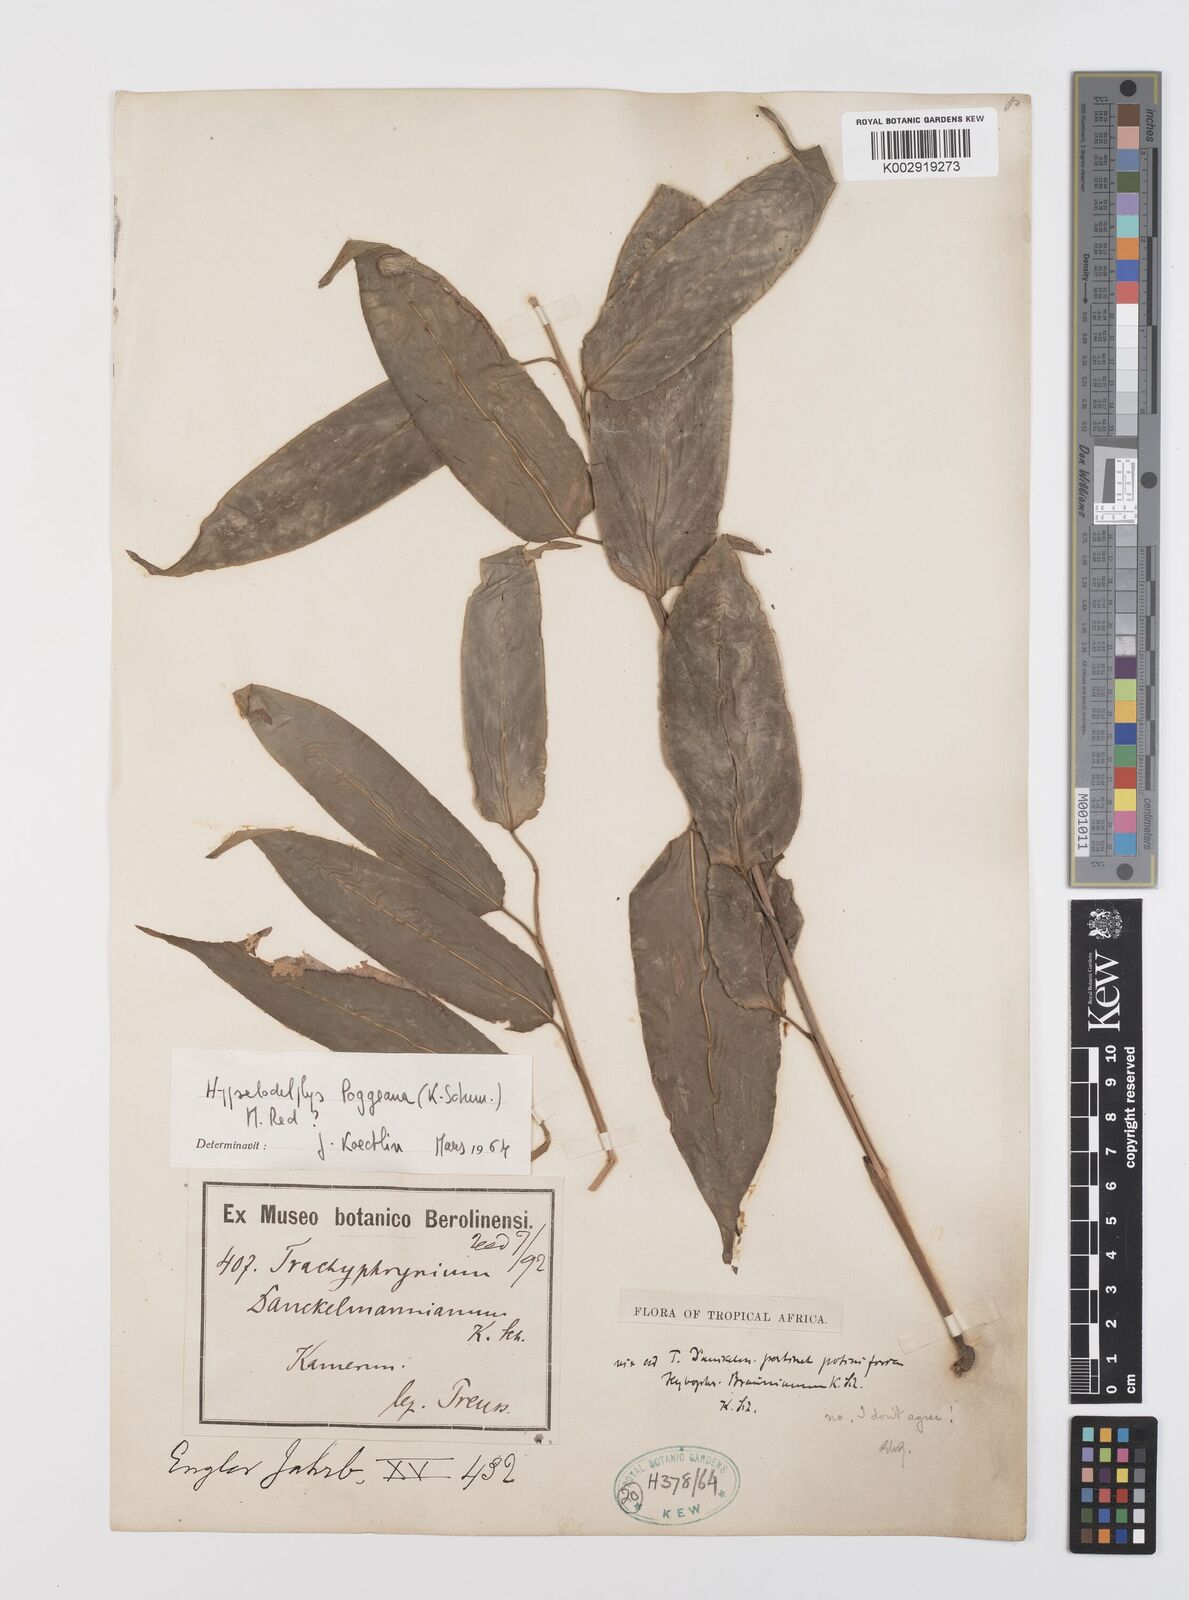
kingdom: Plantae
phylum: Tracheophyta
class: Liliopsida
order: Zingiberales
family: Marantaceae
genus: Hypselodelphys
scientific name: Hypselodelphys poggeana
